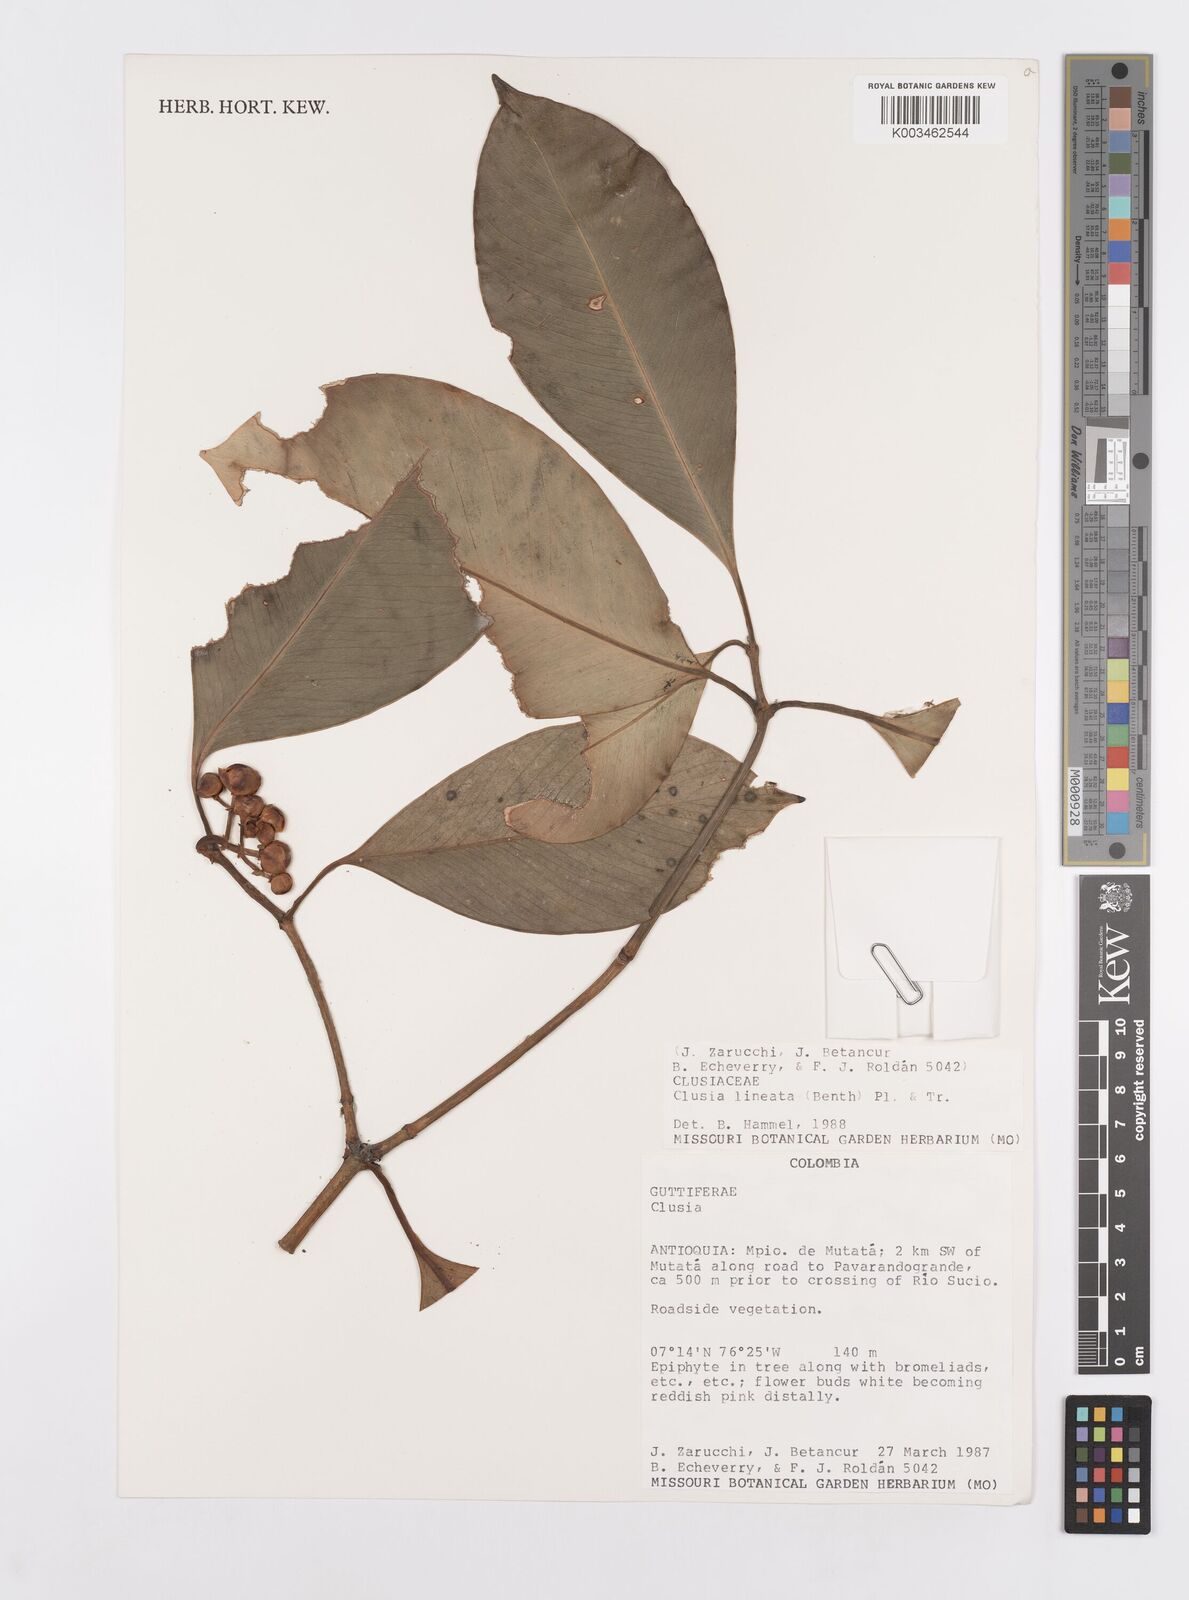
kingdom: Plantae
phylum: Tracheophyta
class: Magnoliopsida
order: Malpighiales
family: Clusiaceae
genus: Clusia
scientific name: Clusia lineata
